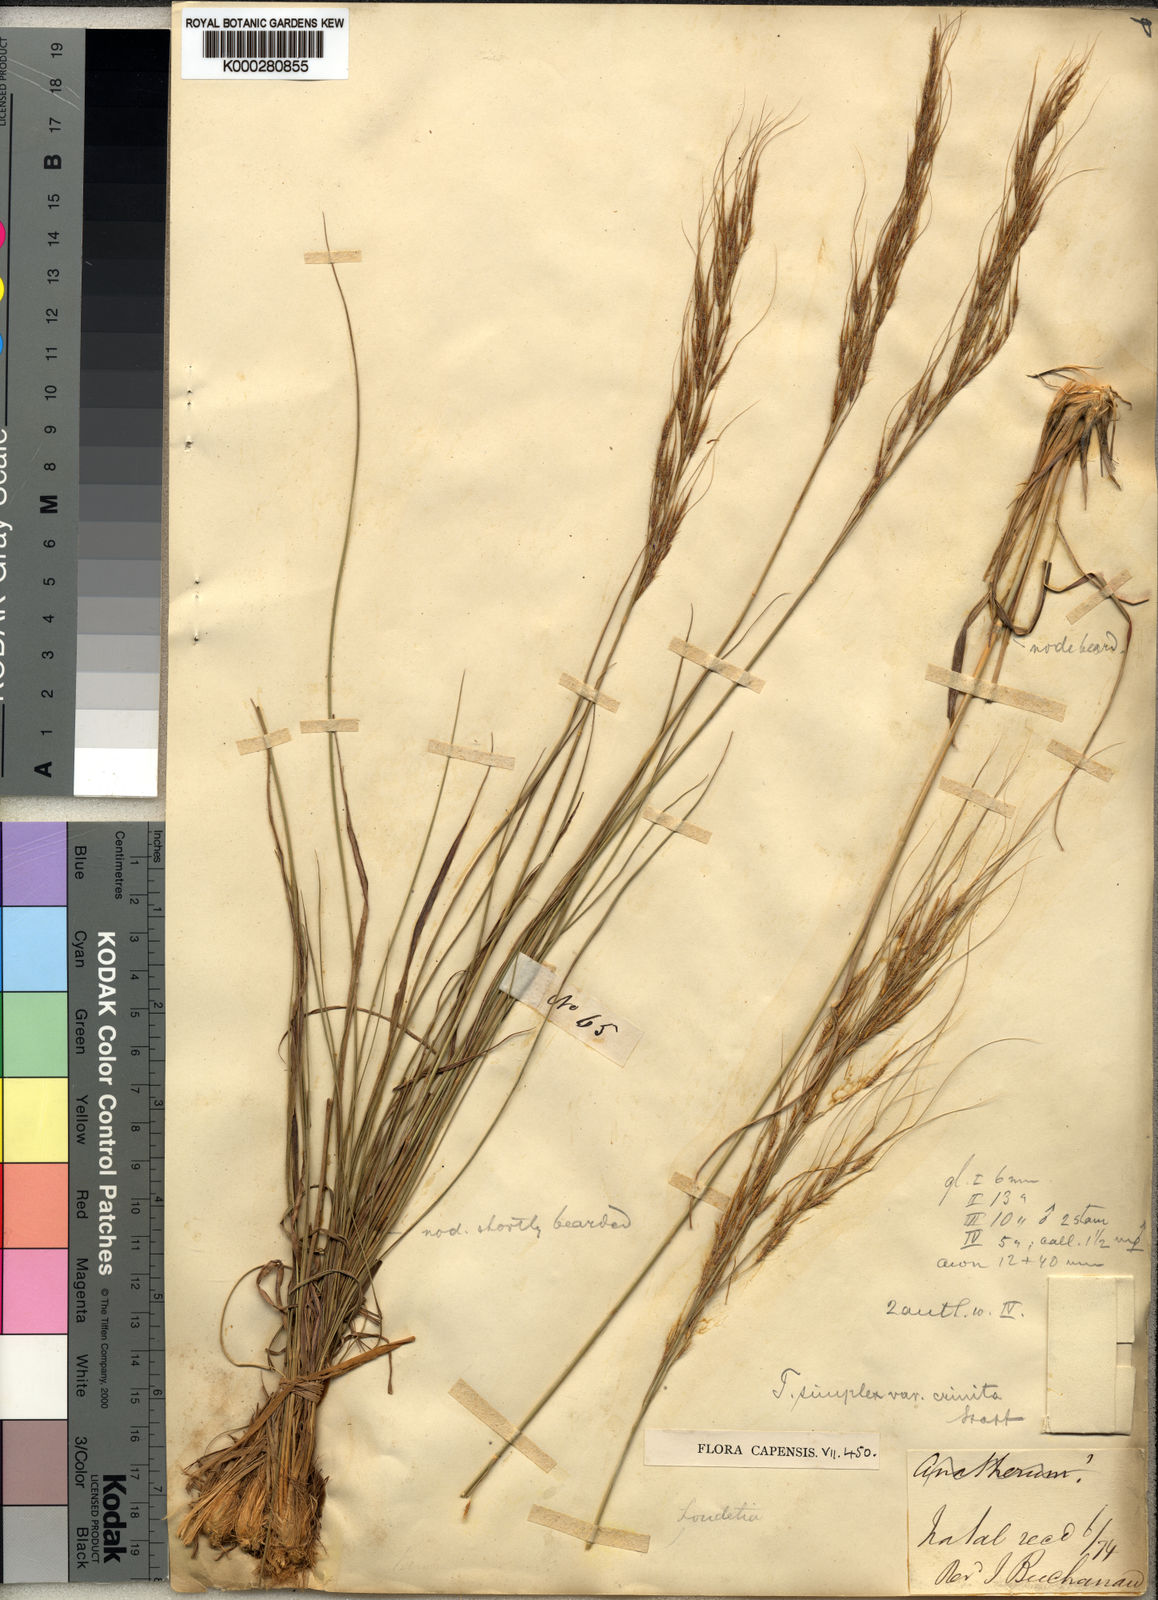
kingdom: Plantae
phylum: Tracheophyta
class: Liliopsida
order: Poales
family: Poaceae
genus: Loudetia
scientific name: Loudetia simplex
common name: Common russet grass
